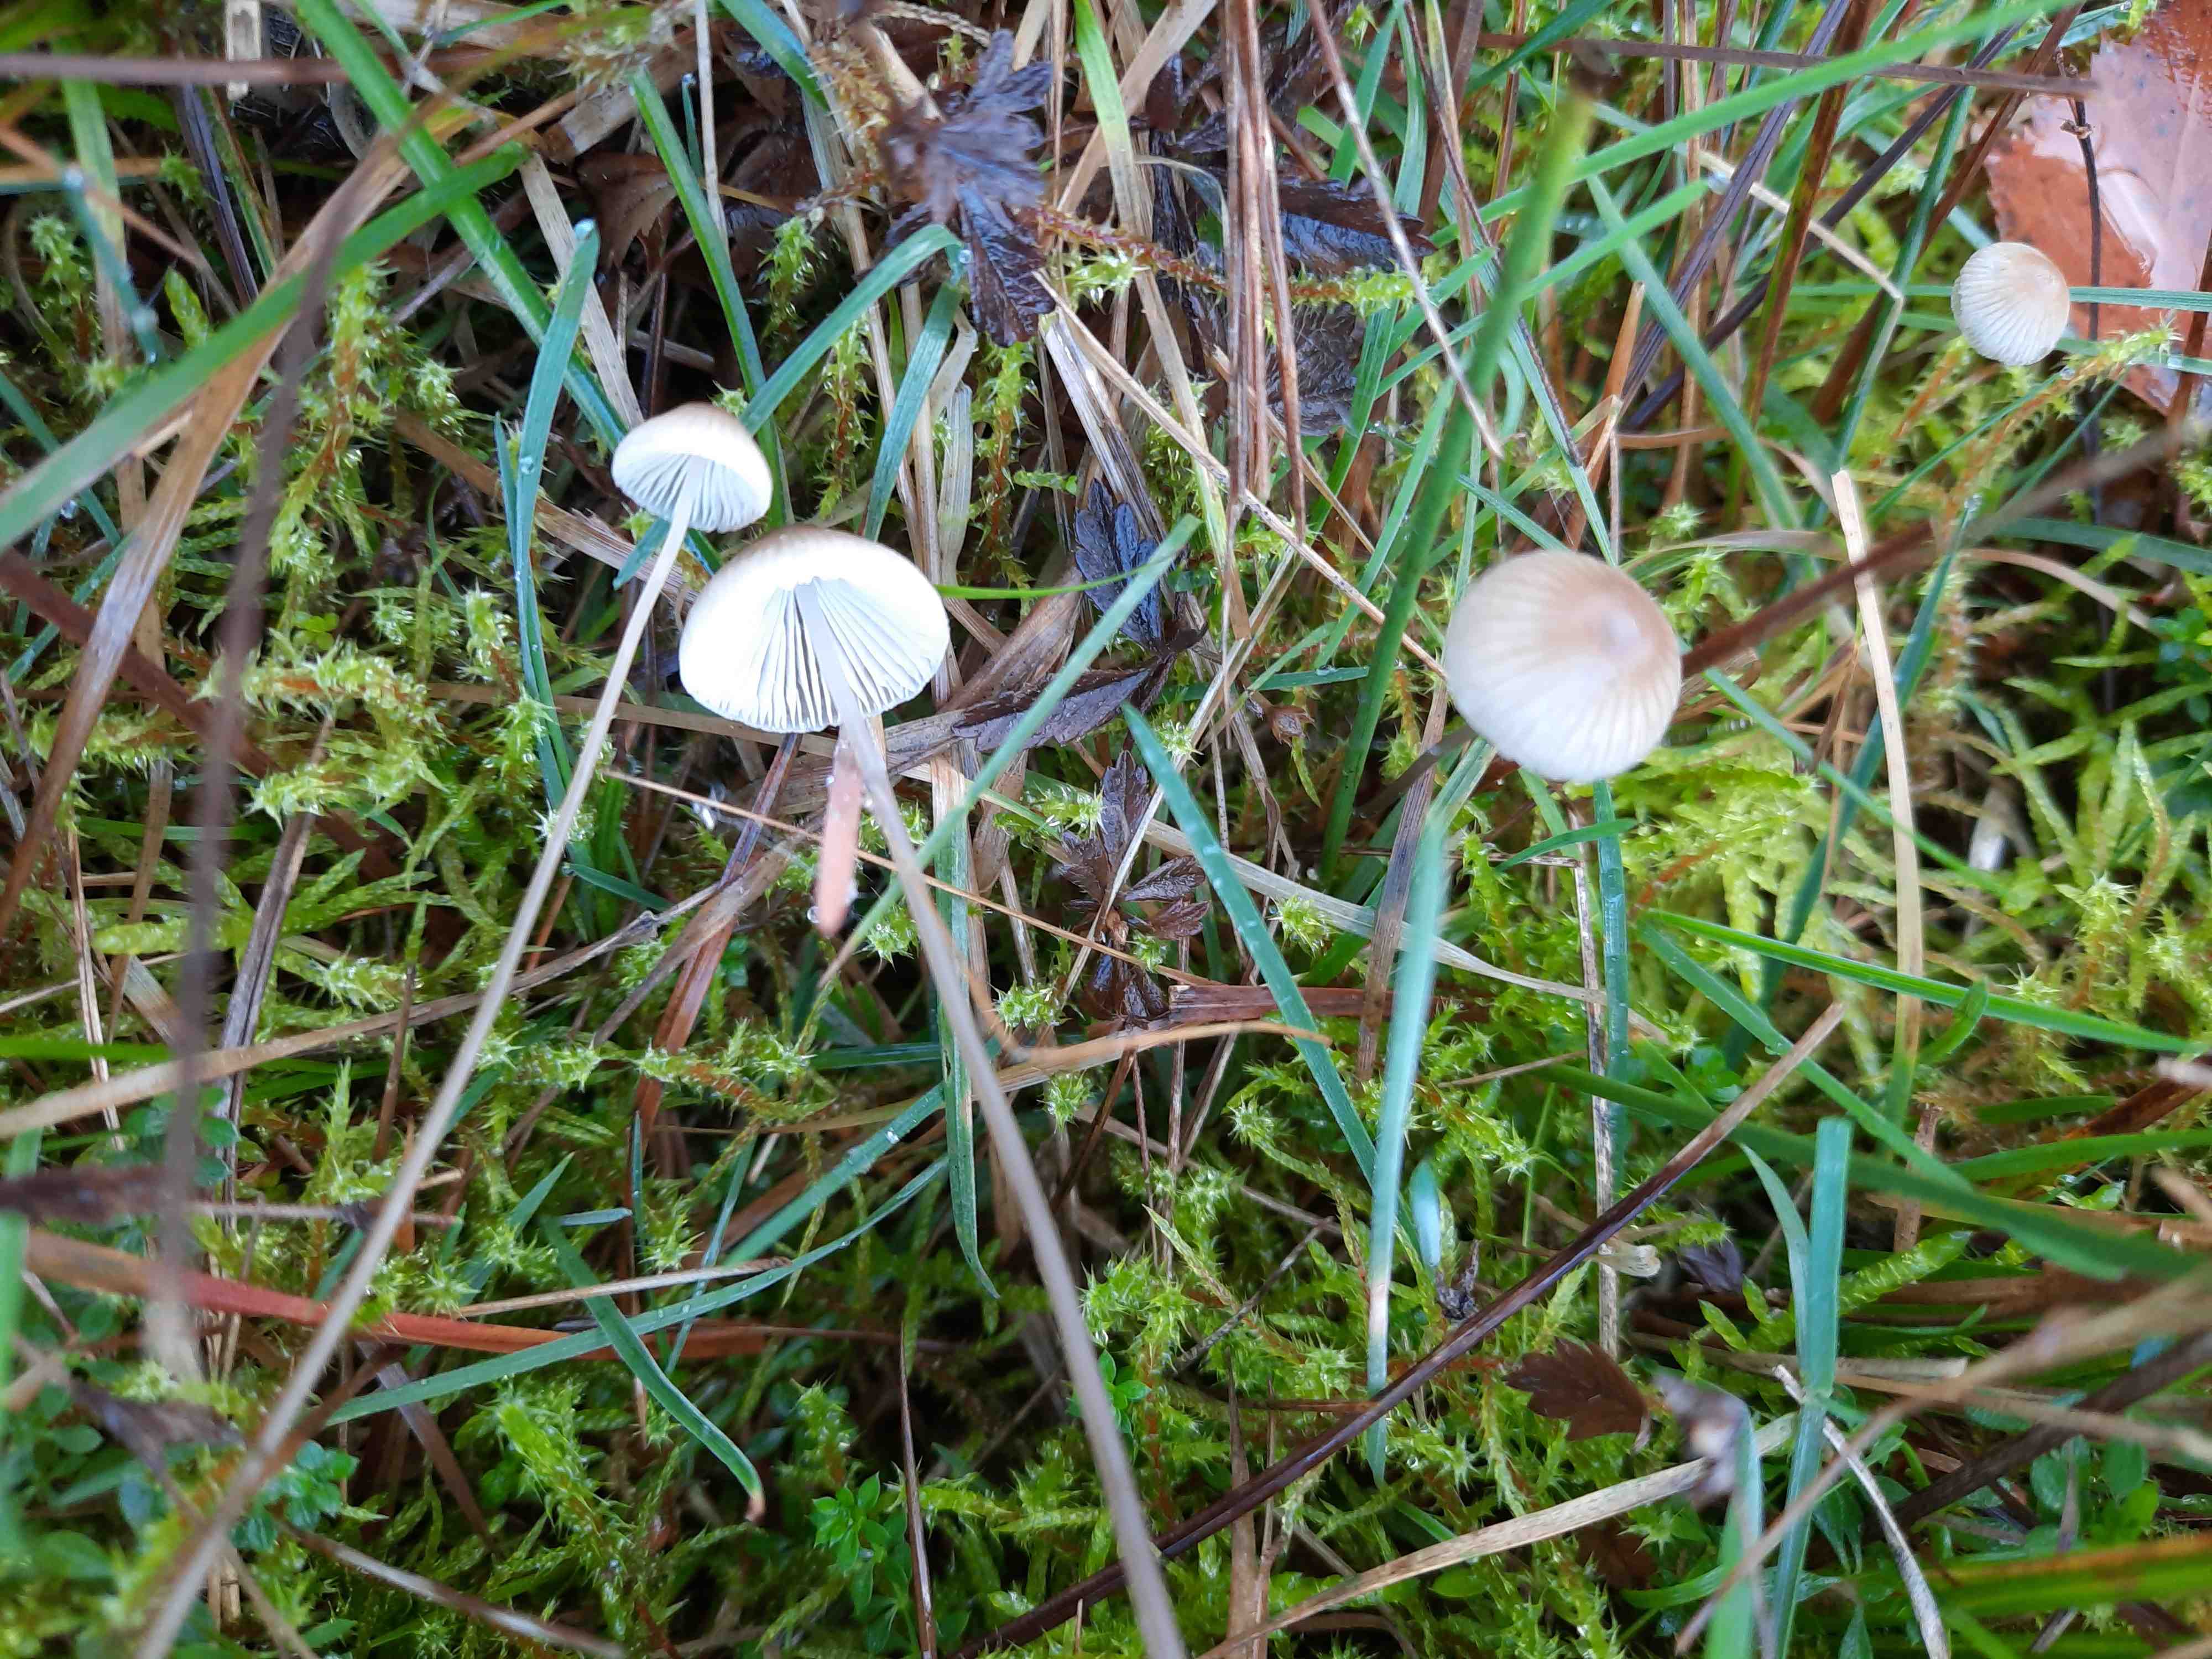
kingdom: Fungi
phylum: Basidiomycota
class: Agaricomycetes
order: Agaricales
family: Mycenaceae
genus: Mycena
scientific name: Mycena
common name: huesvamp
